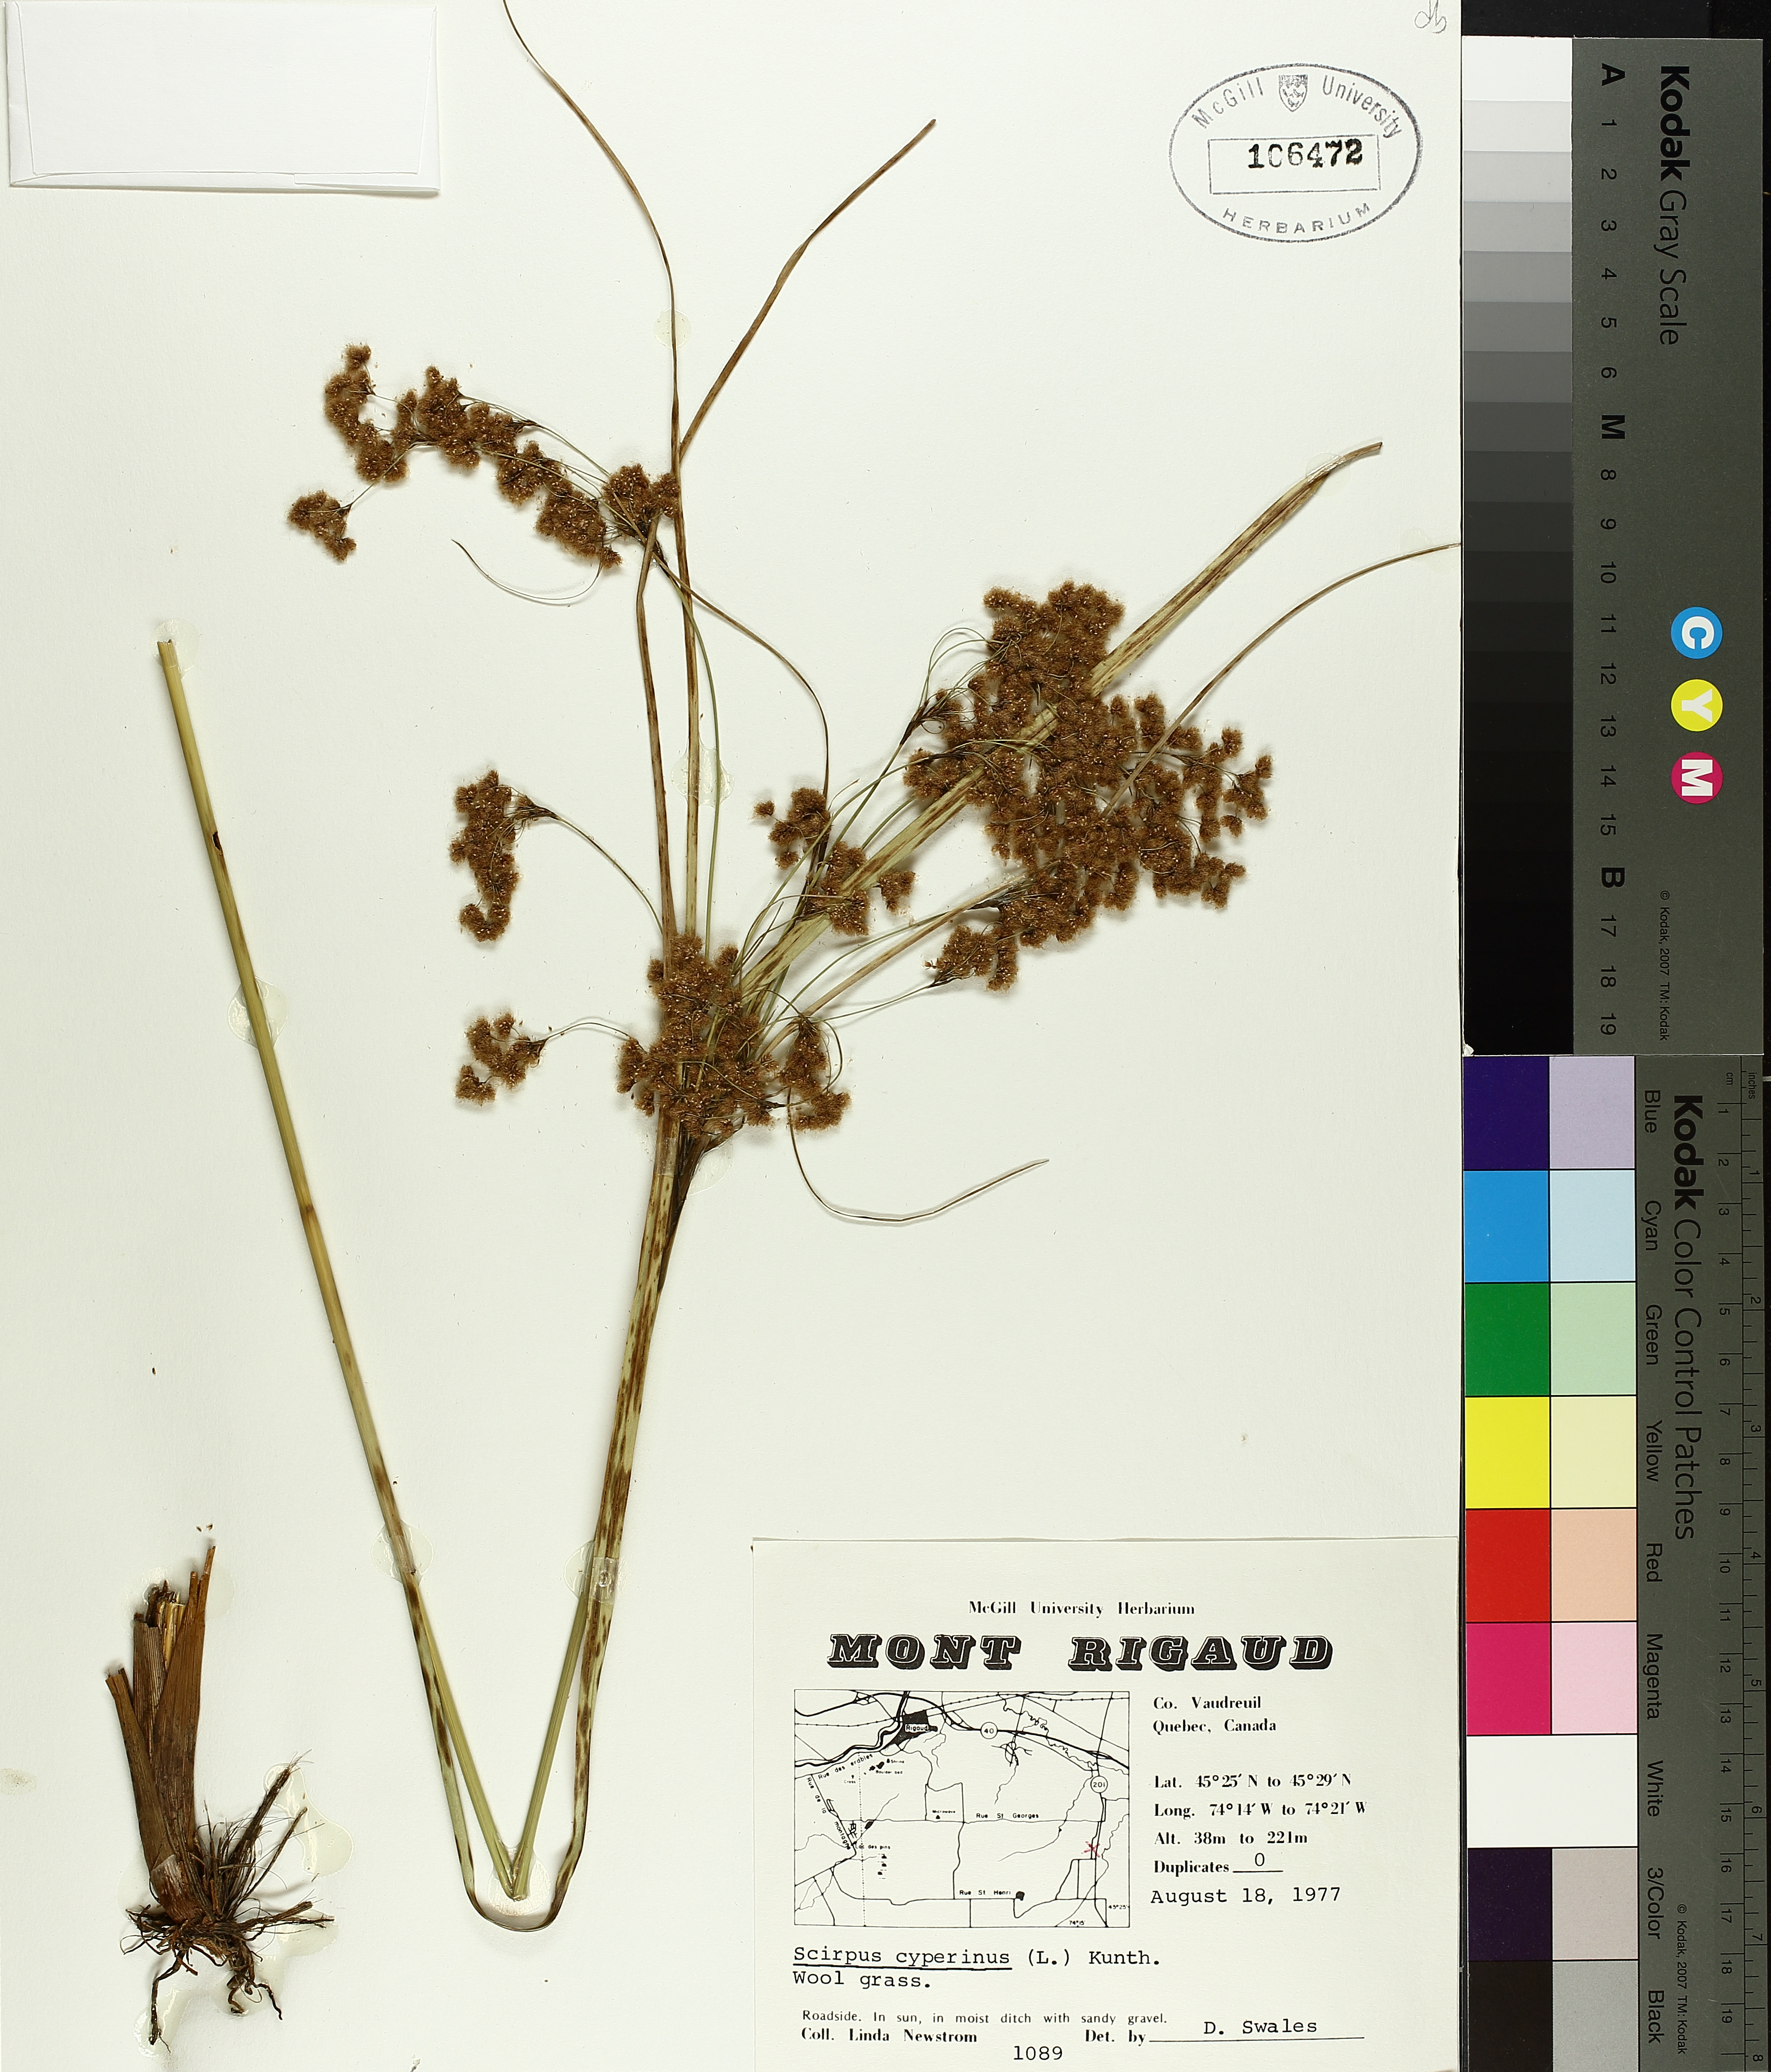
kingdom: Plantae
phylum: Tracheophyta
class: Liliopsida
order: Poales
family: Cyperaceae
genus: Scirpus
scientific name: Scirpus cyperinus
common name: Black-sheathed bulrush
